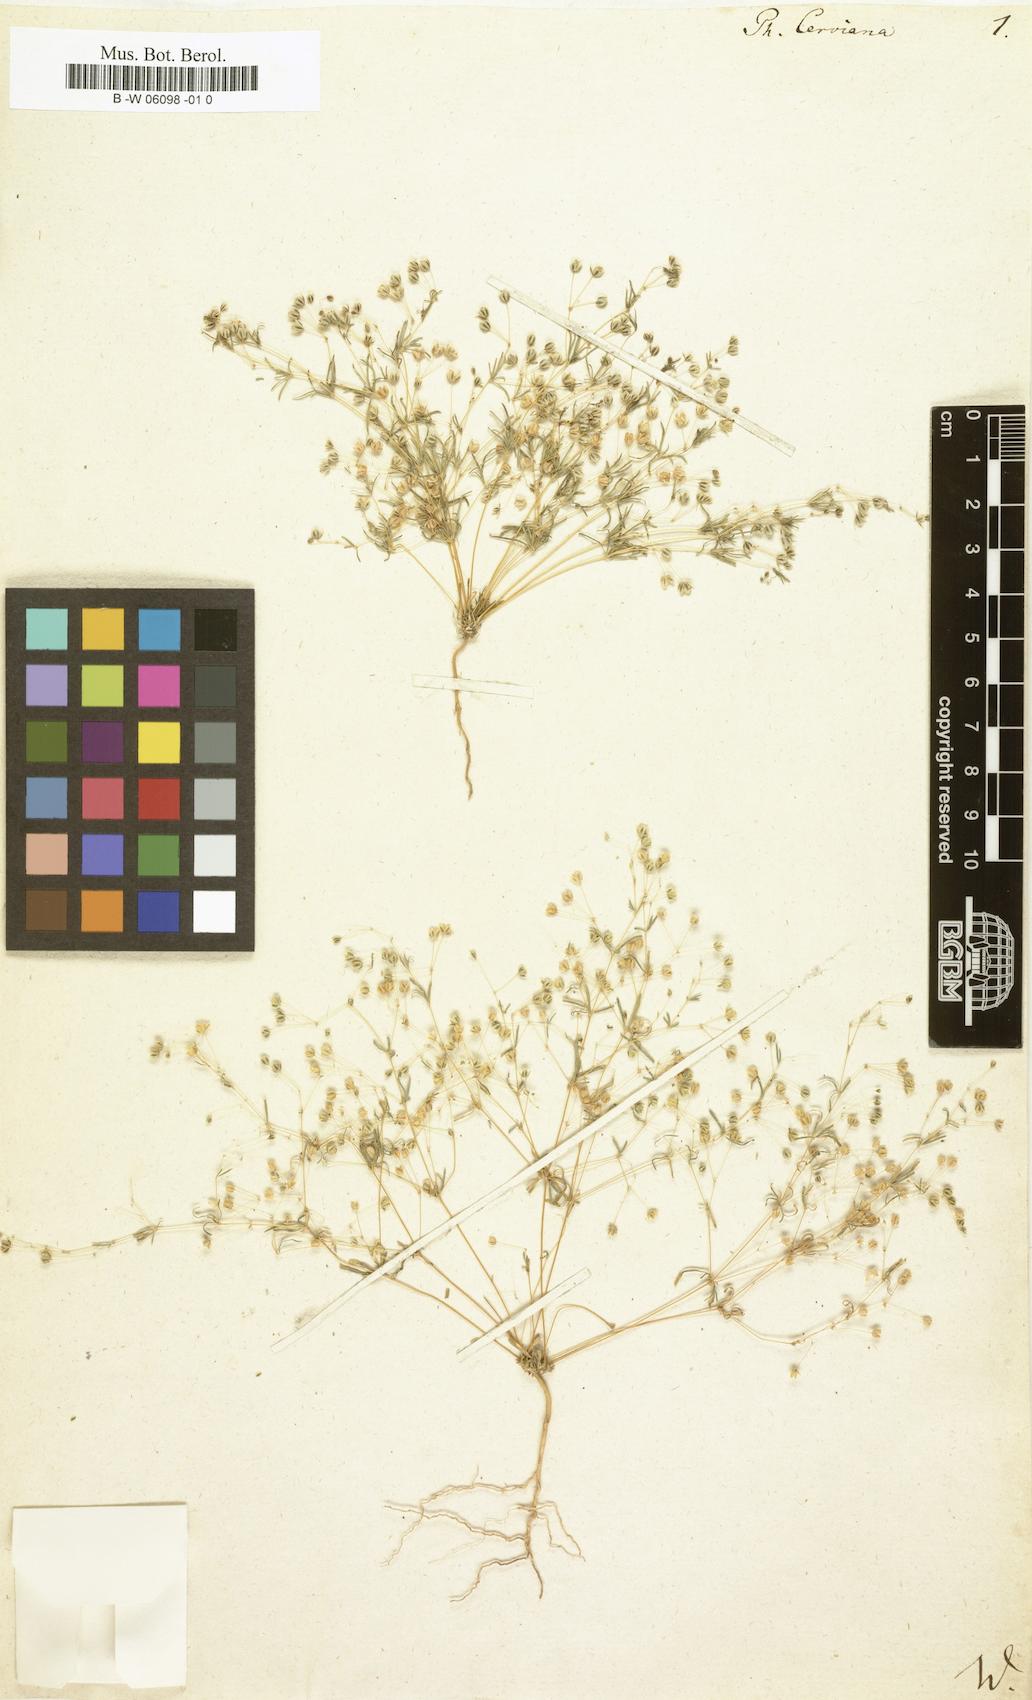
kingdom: Plantae
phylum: Tracheophyta
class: Magnoliopsida
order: Caryophyllales
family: Molluginaceae
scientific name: Molluginaceae
